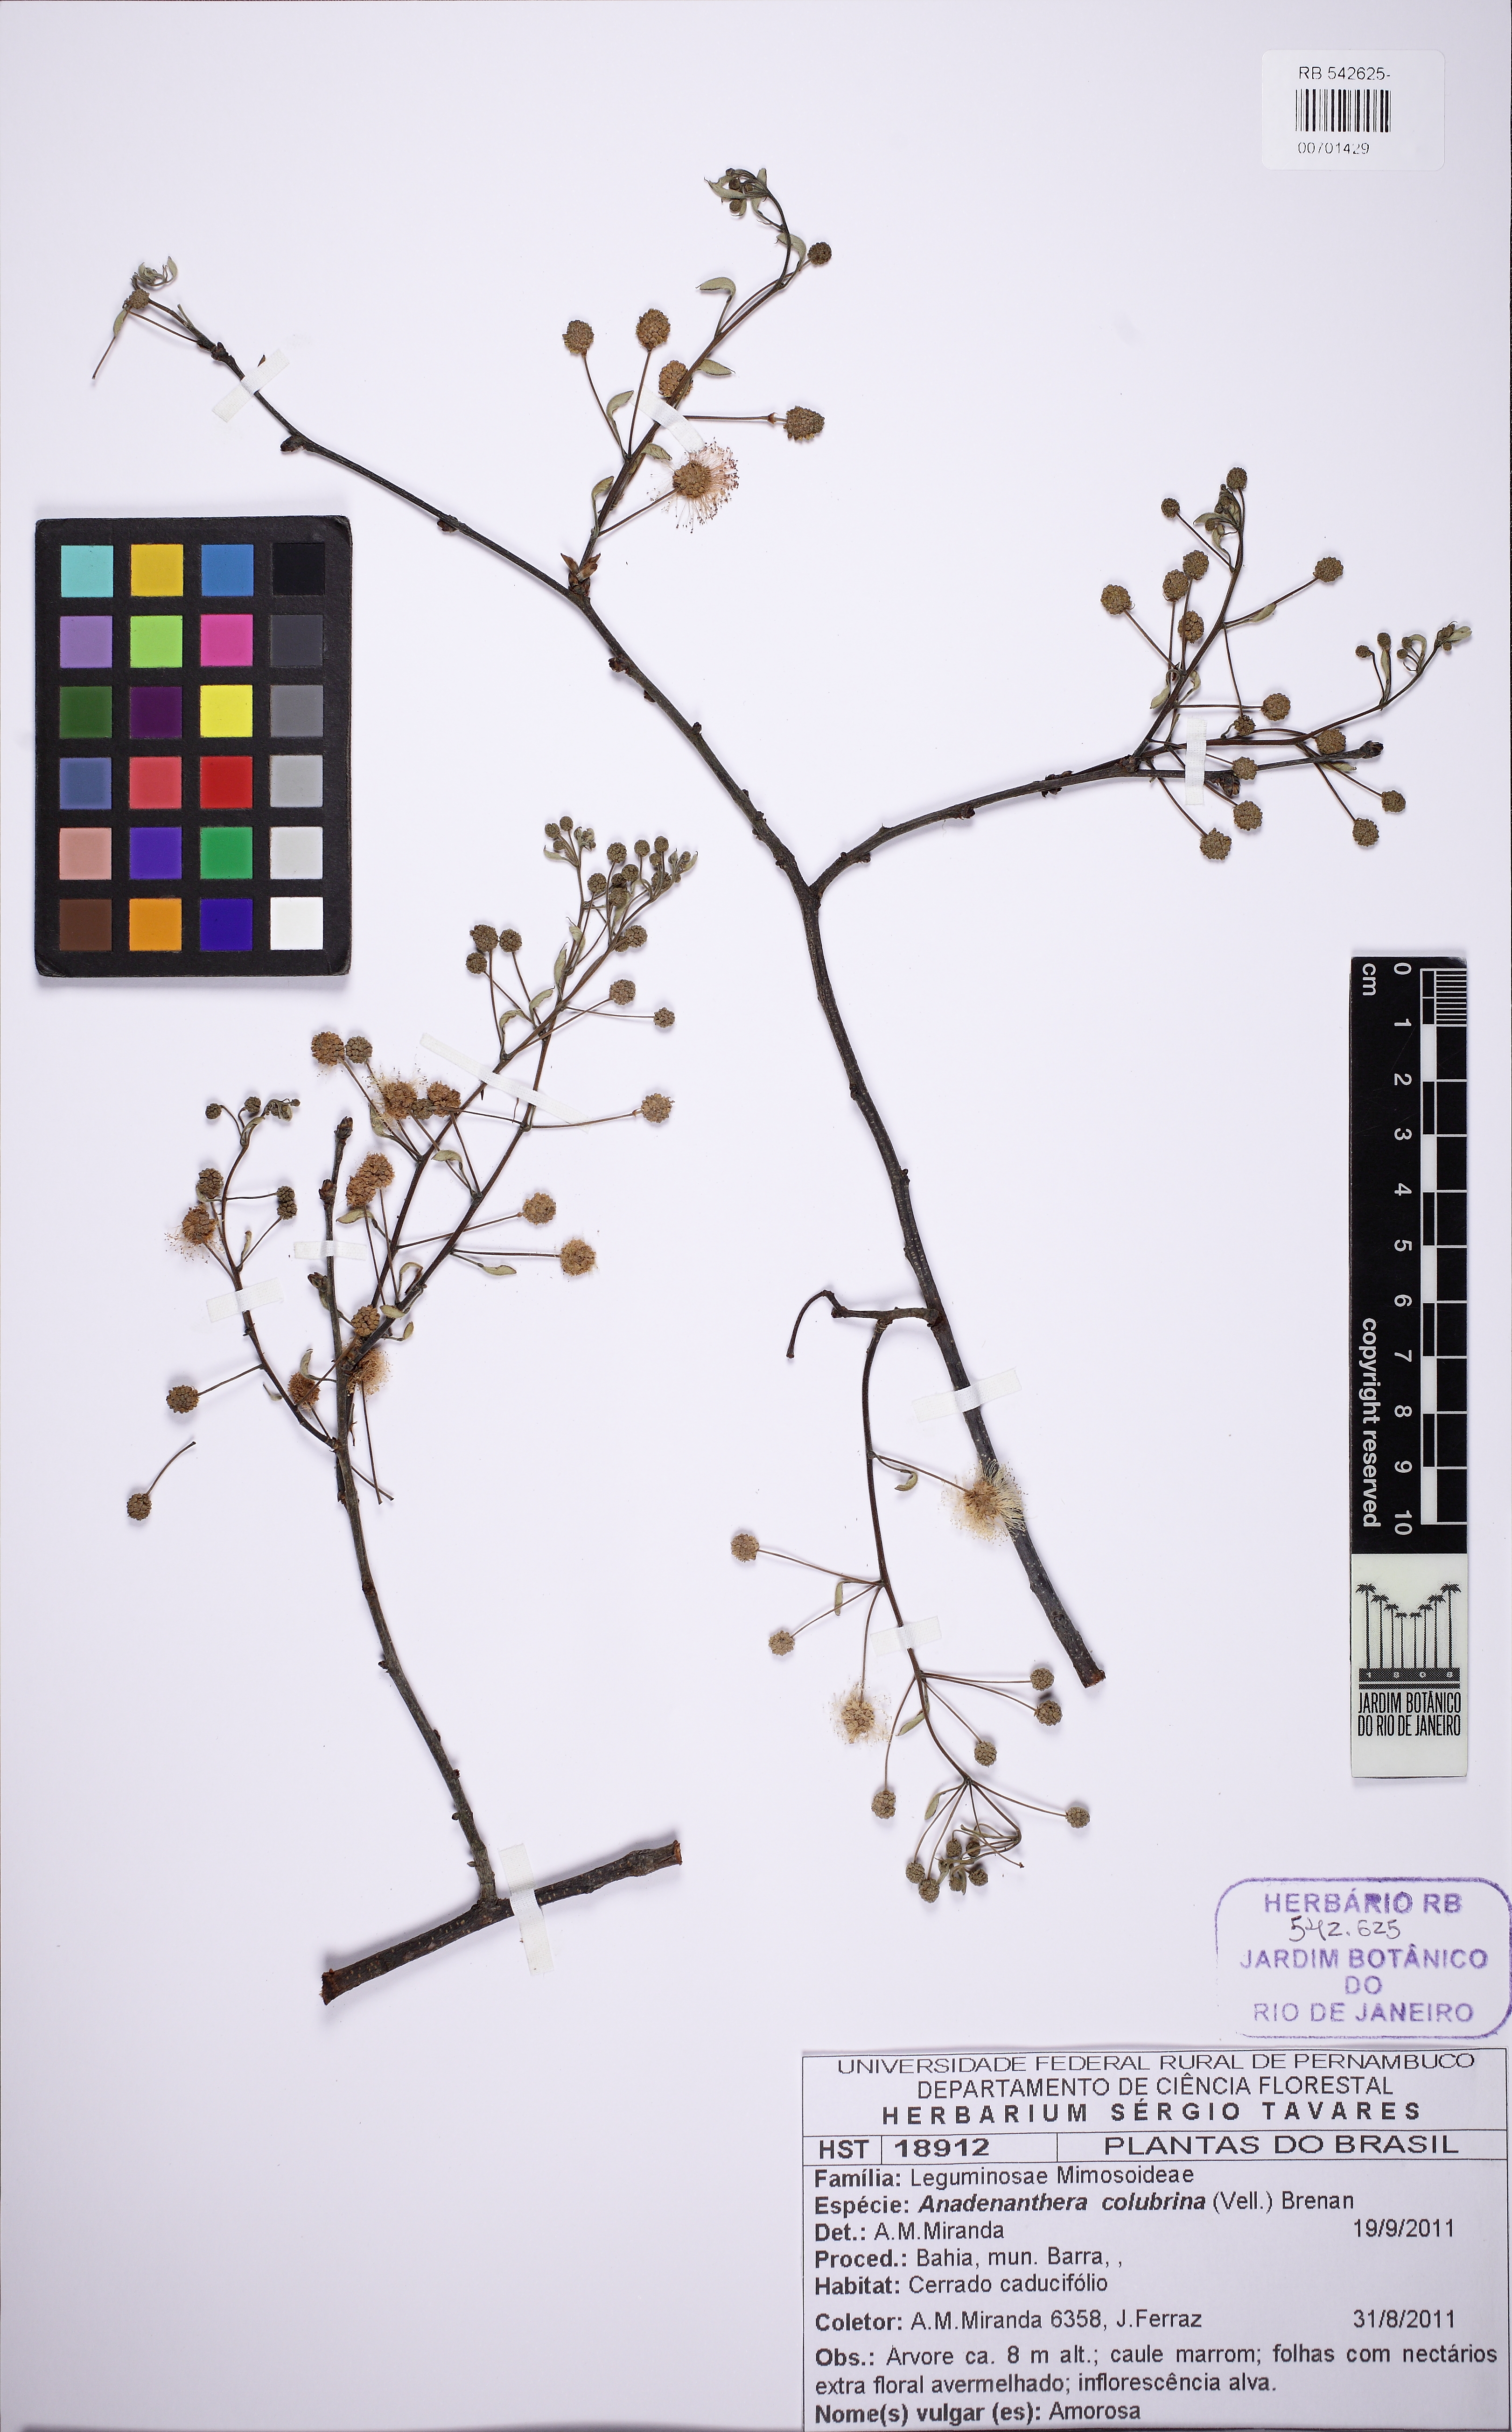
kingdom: Plantae
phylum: Tracheophyta
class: Magnoliopsida
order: Fabales
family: Fabaceae
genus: Anadenanthera
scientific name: Anadenanthera colubrina
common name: Curupay
